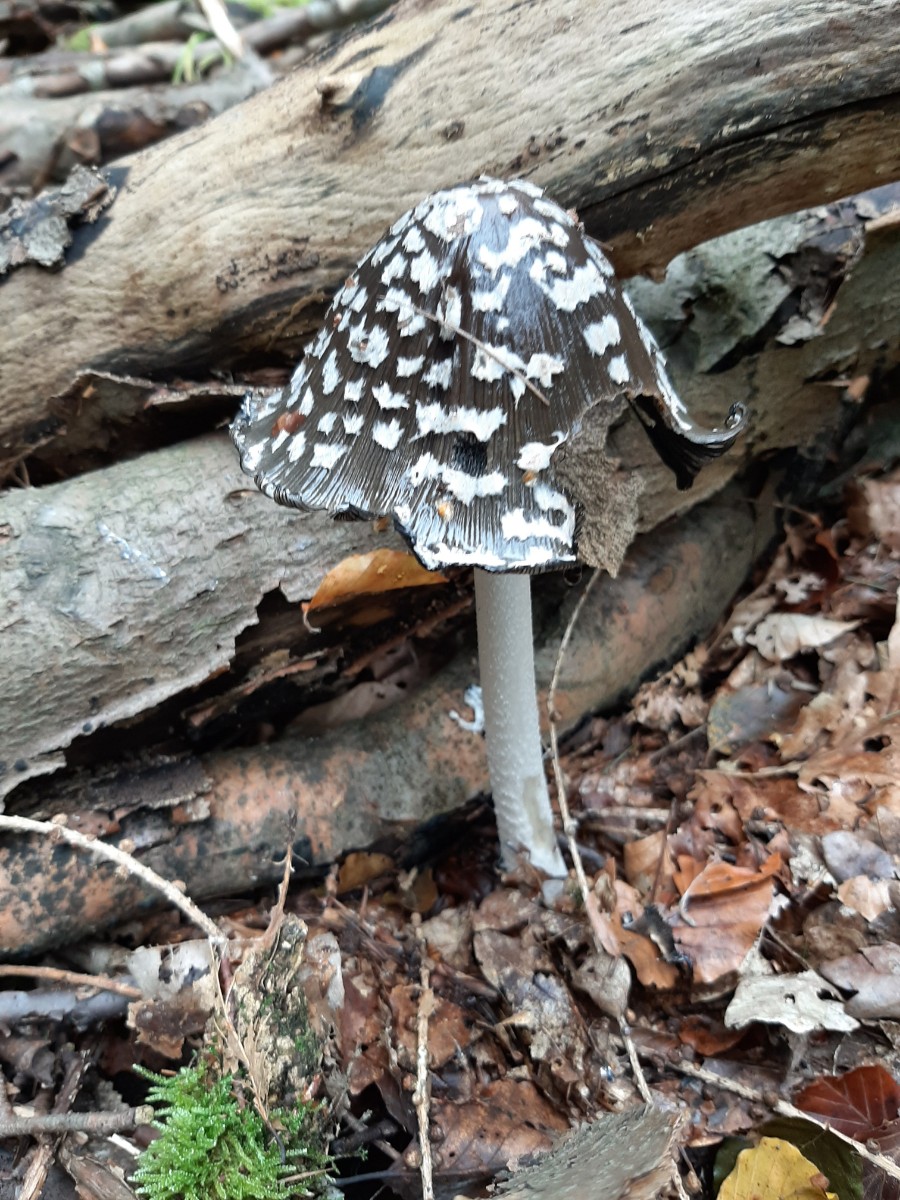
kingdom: Fungi
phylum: Basidiomycota
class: Agaricomycetes
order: Agaricales
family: Psathyrellaceae
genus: Coprinopsis
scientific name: Coprinopsis picacea
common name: skade-blækhat
